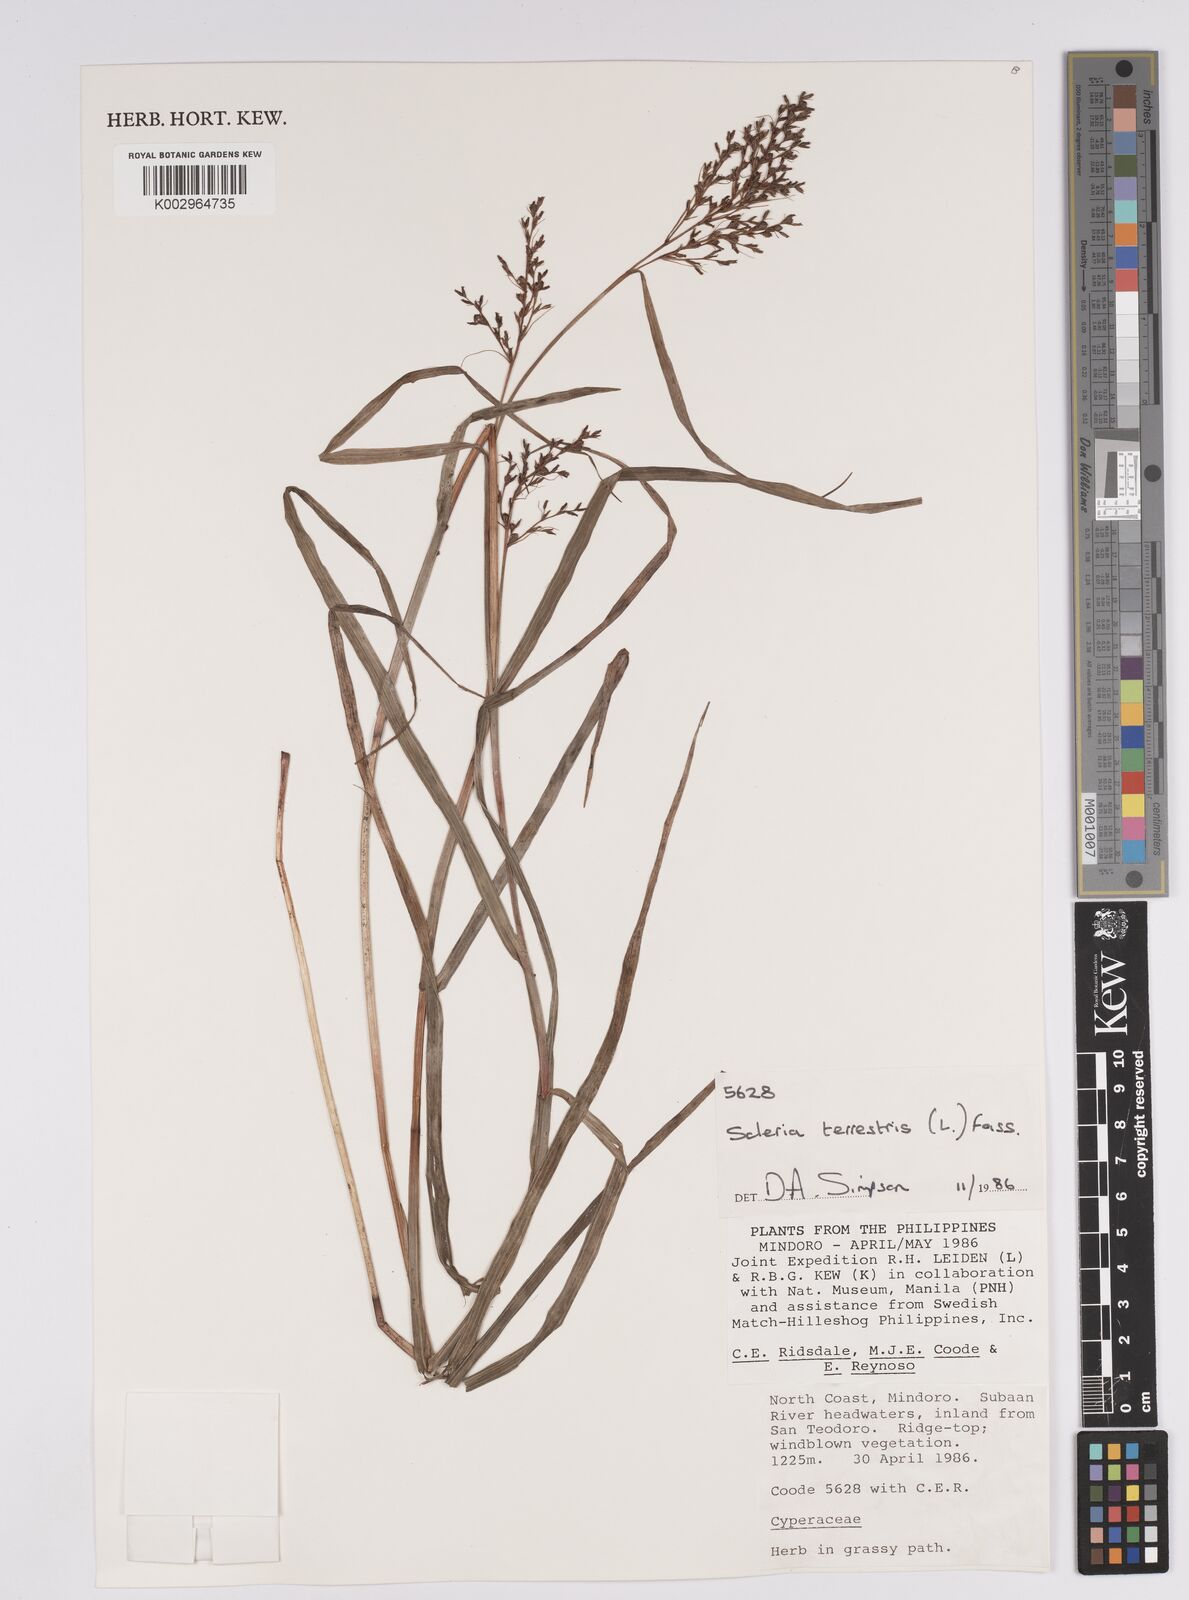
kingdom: Plantae
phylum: Tracheophyta
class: Liliopsida
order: Poales
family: Cyperaceae
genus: Scleria
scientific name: Scleria terrestris
